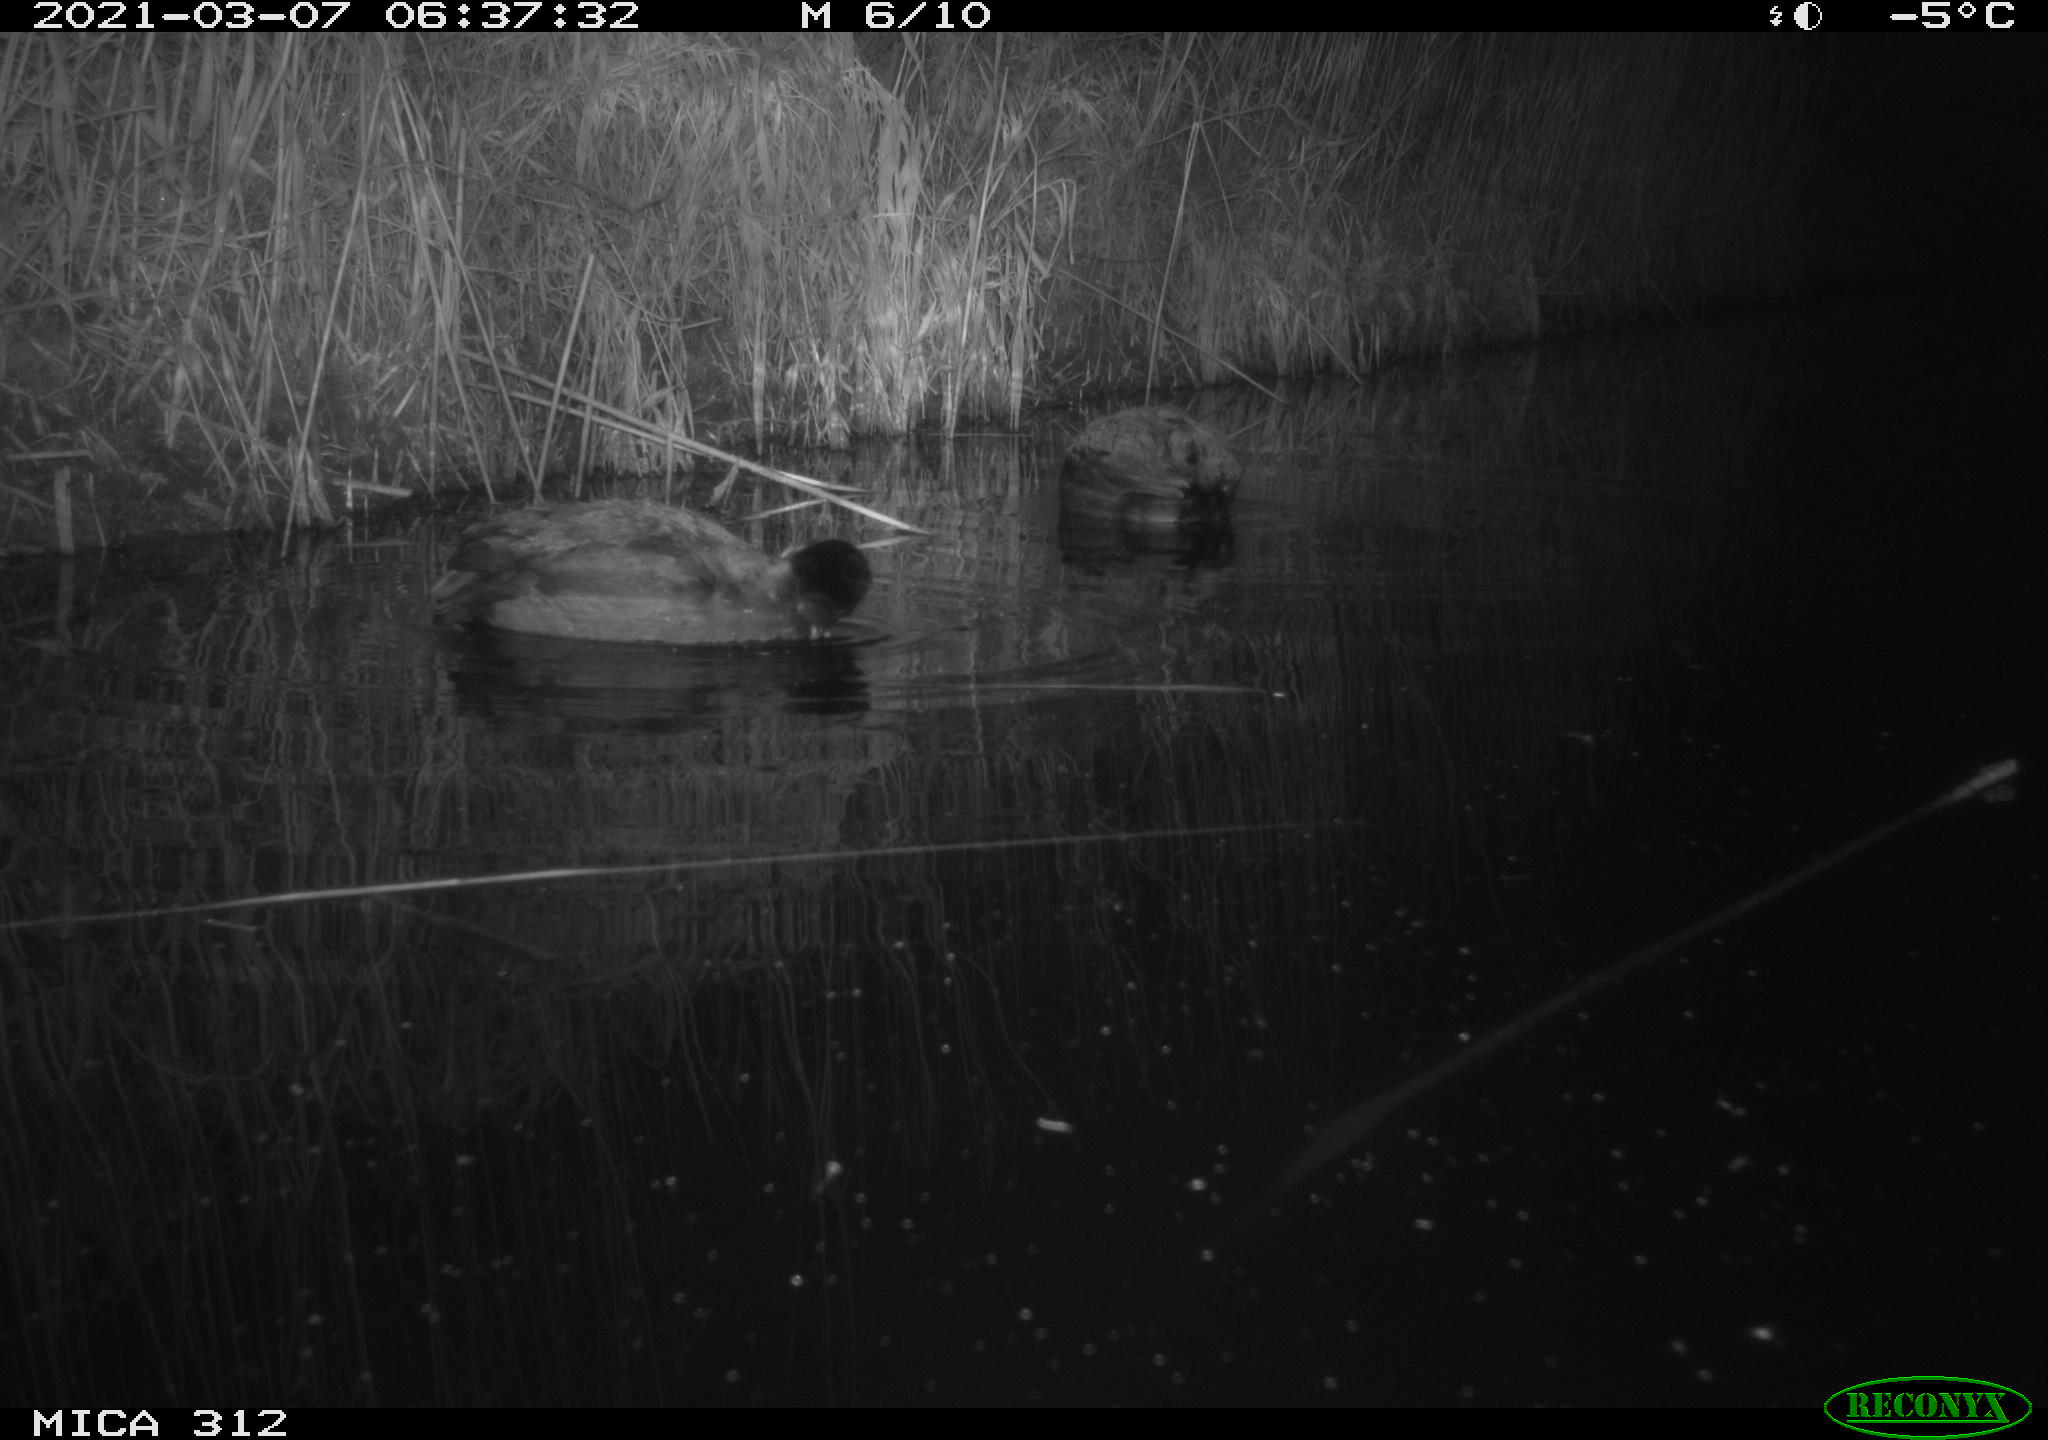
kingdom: Animalia
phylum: Chordata
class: Aves
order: Gruiformes
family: Rallidae
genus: Fulica
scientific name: Fulica atra
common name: Eurasian coot
